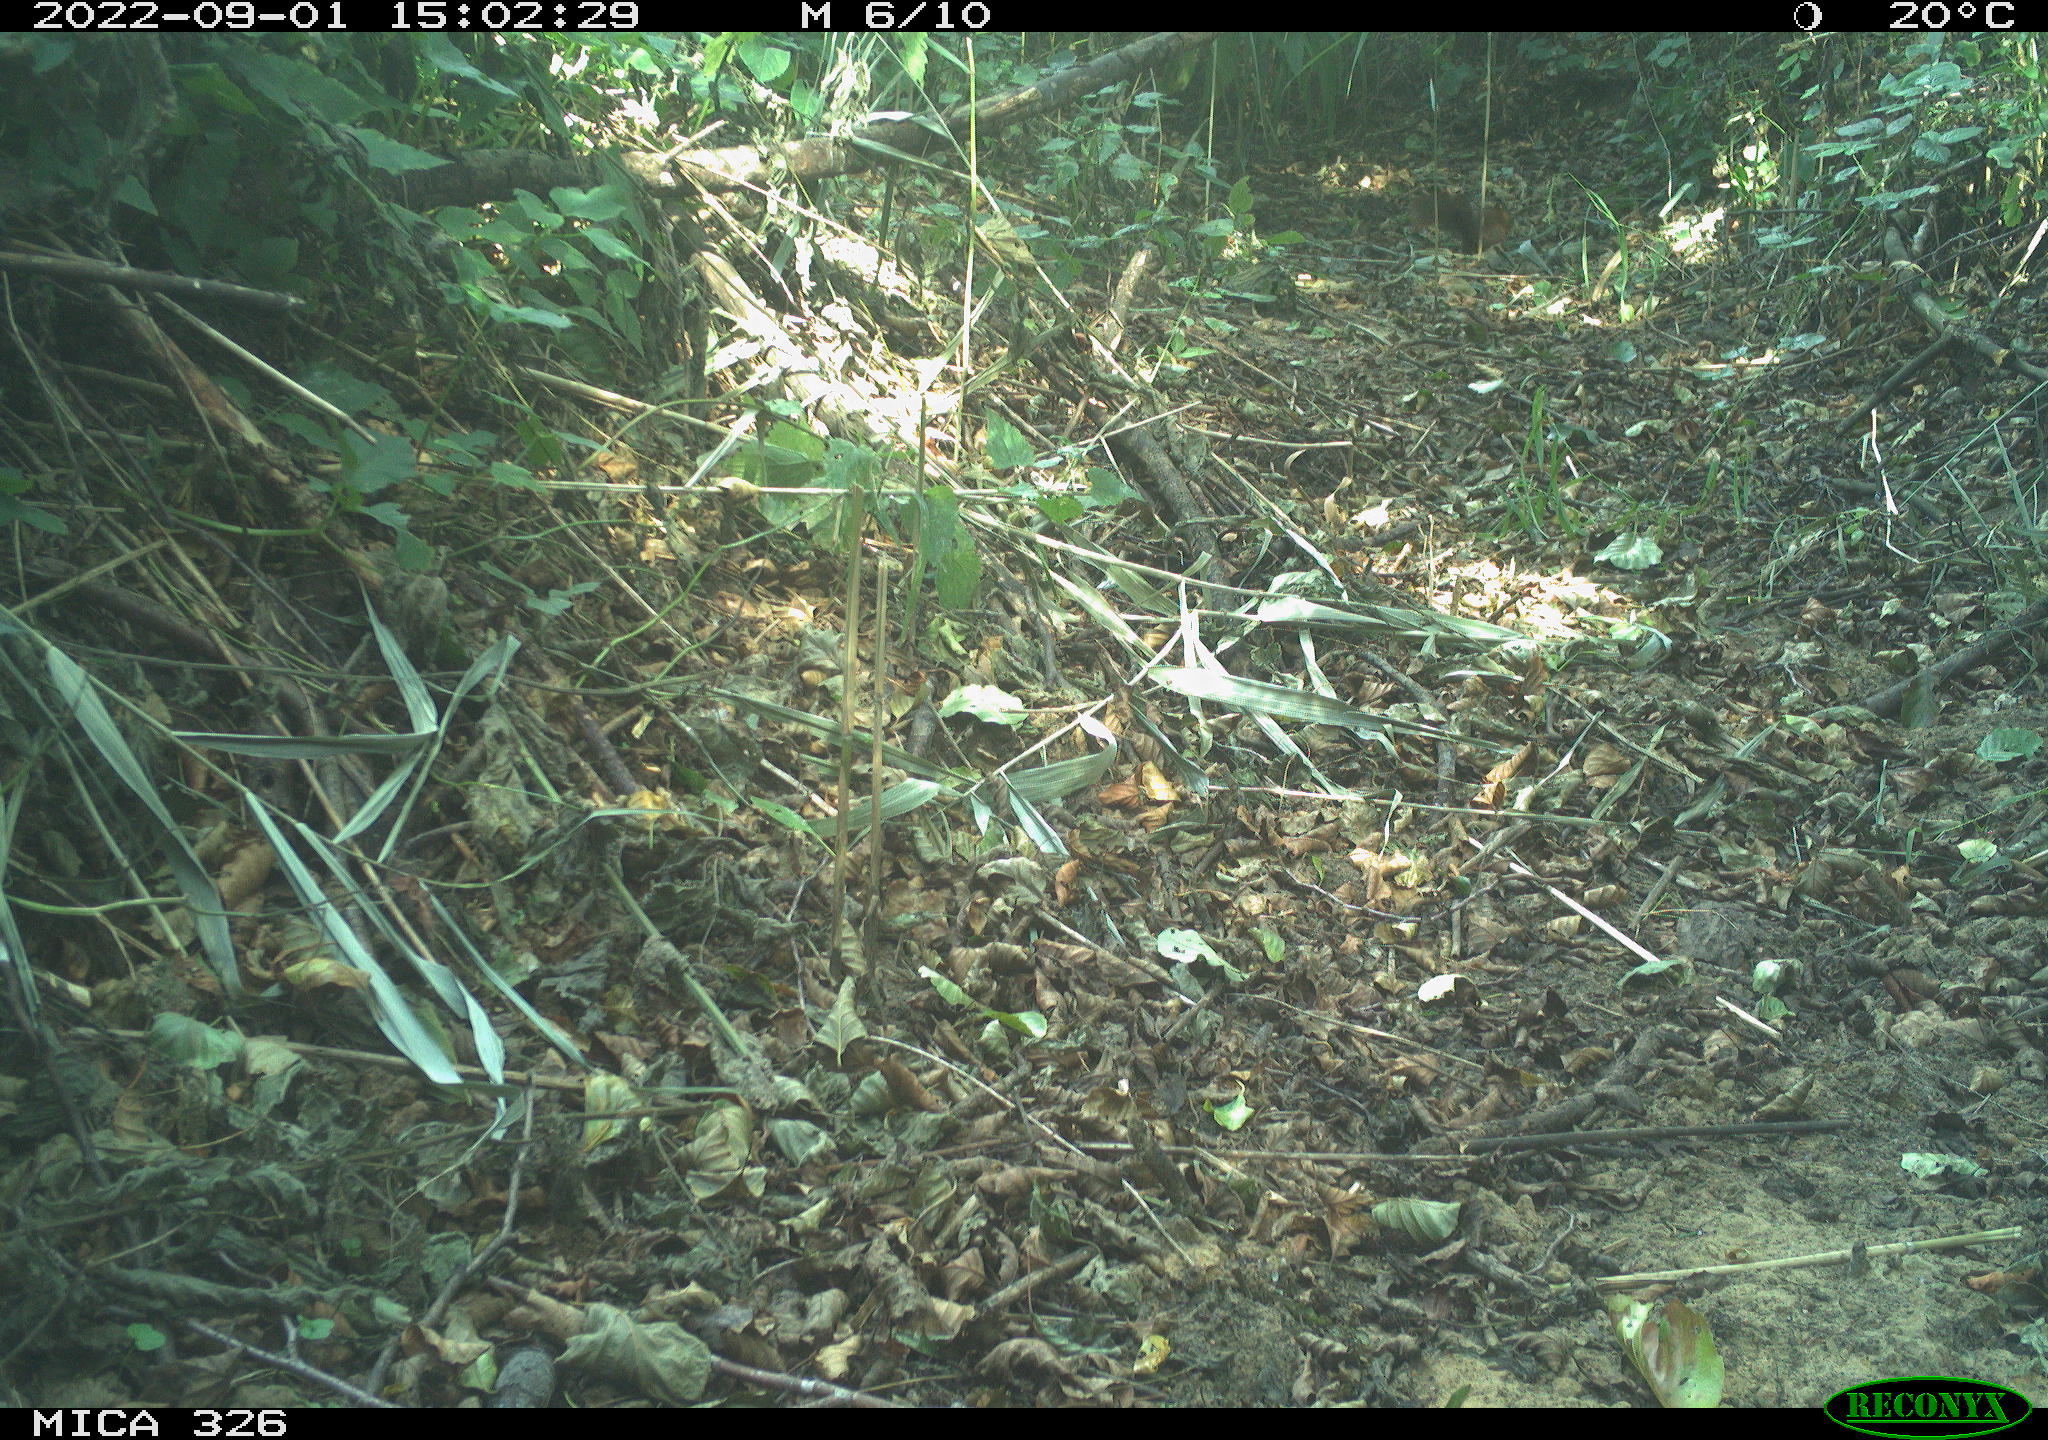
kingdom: Animalia
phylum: Chordata
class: Mammalia
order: Rodentia
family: Sciuridae
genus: Sciurus
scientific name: Sciurus vulgaris
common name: Eurasian red squirrel
